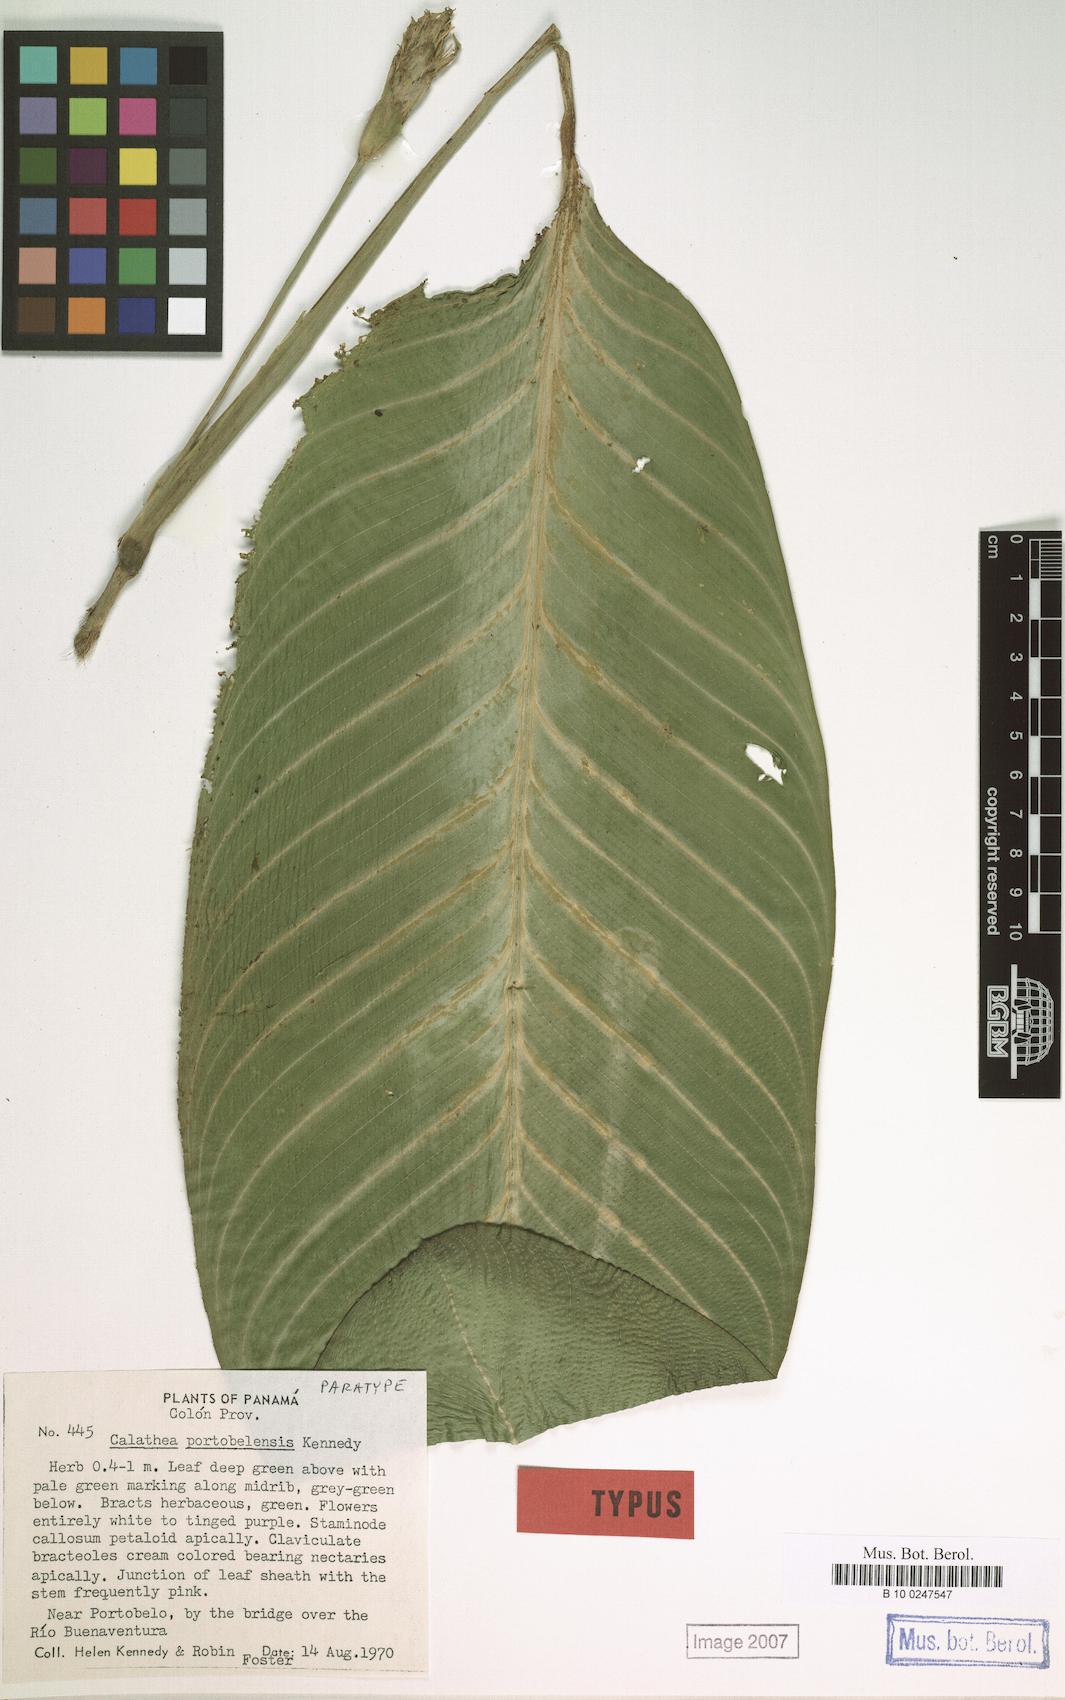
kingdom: Plantae
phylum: Tracheophyta
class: Liliopsida
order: Zingiberales
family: Marantaceae
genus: Goeppertia
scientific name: Goeppertia portobelensis
